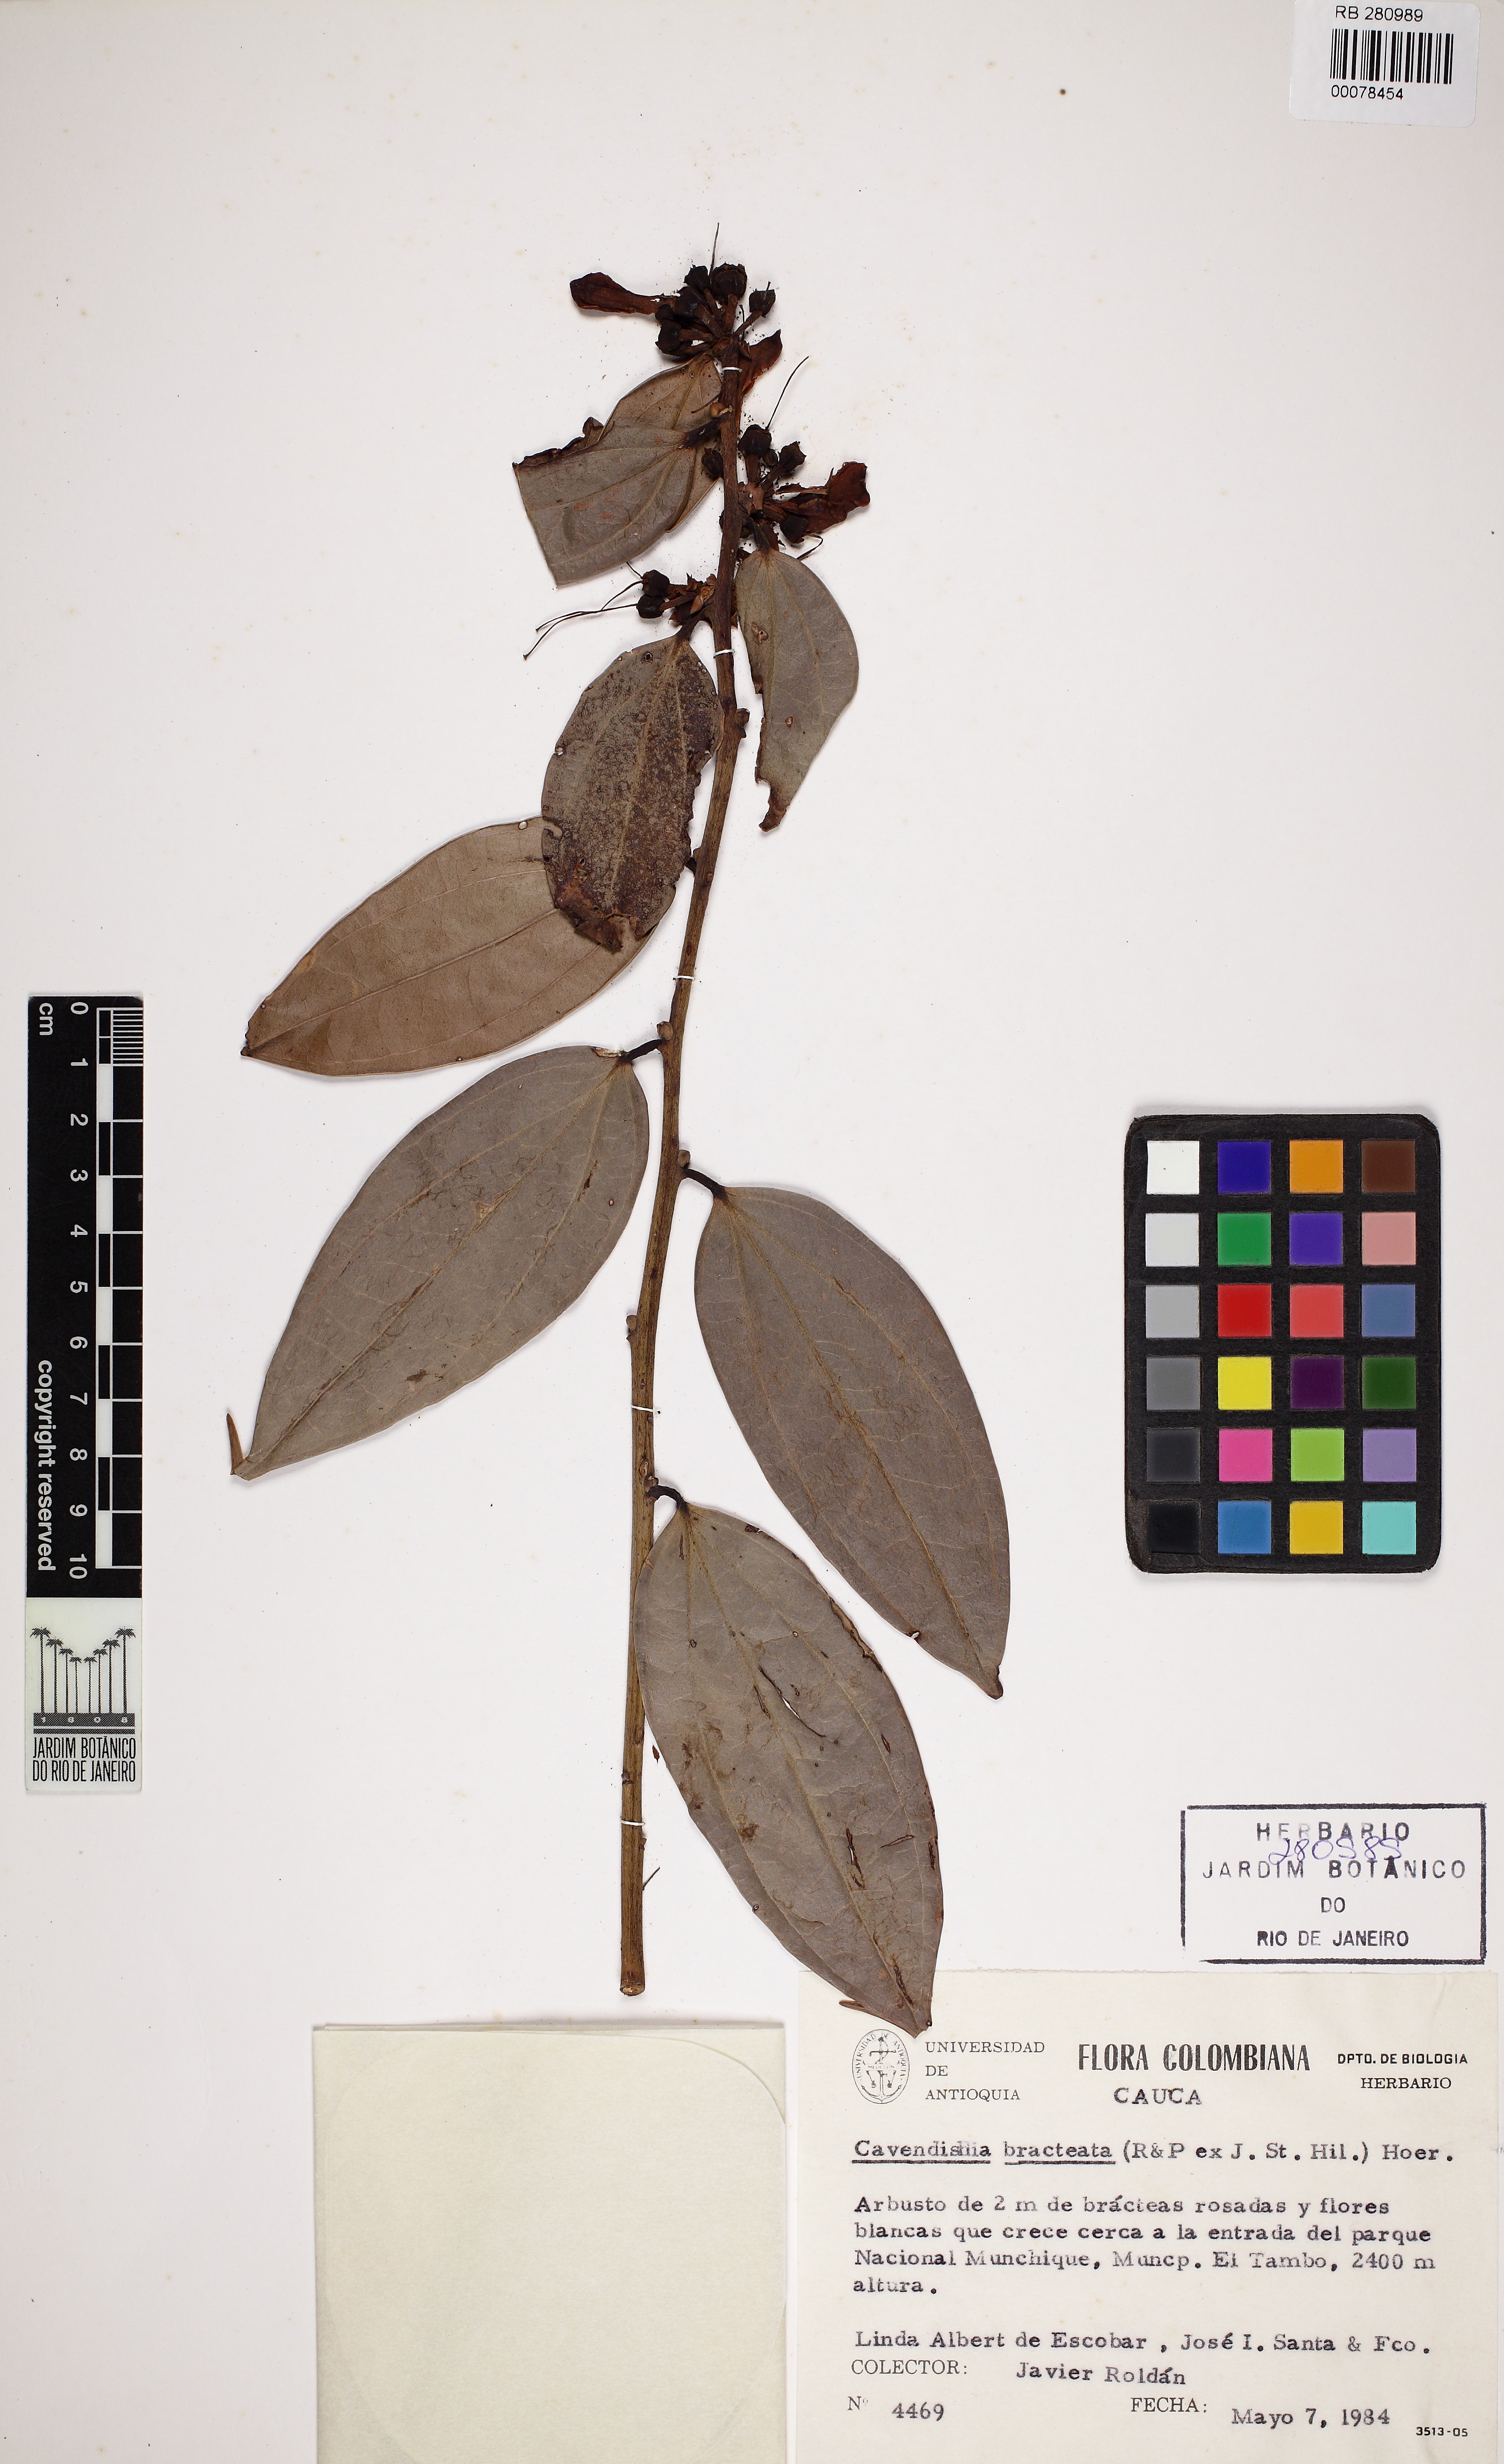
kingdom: Plantae
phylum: Tracheophyta
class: Magnoliopsida
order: Ericales
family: Ericaceae
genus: Cavendishia
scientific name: Cavendishia bracteata
